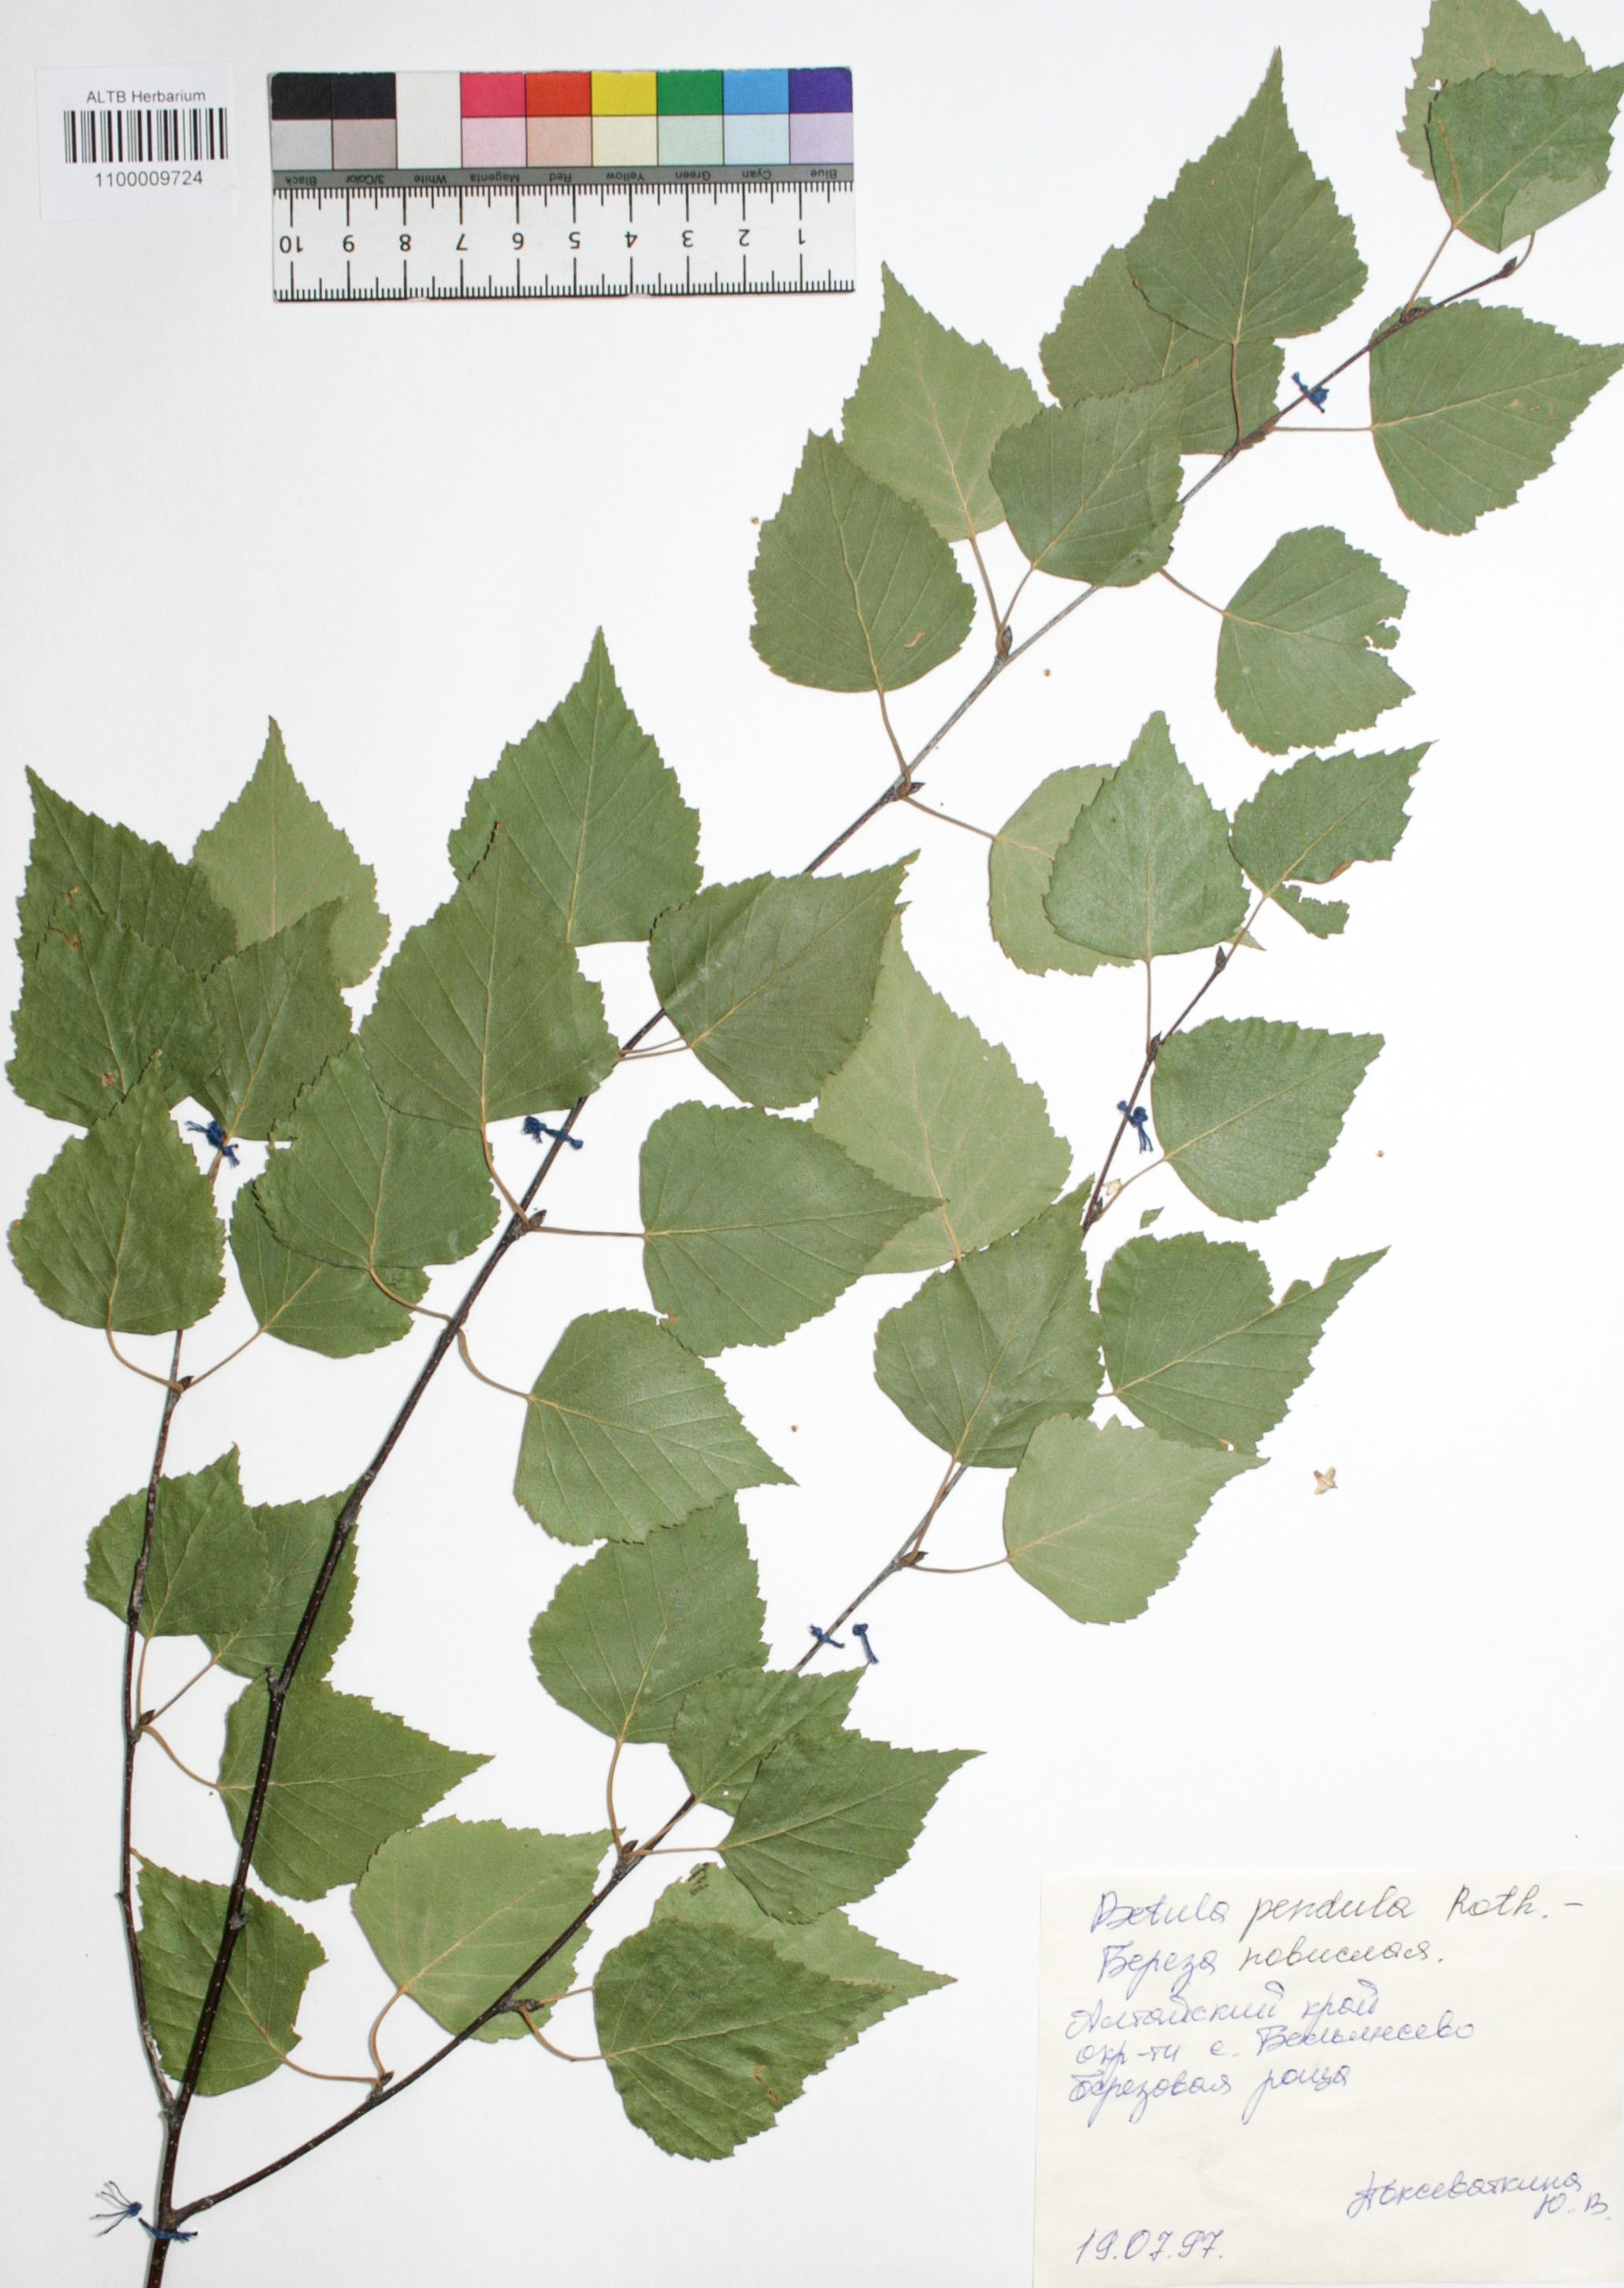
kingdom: Plantae
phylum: Tracheophyta
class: Magnoliopsida
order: Fagales
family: Betulaceae
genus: Betula
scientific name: Betula pendula
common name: Silver birch
